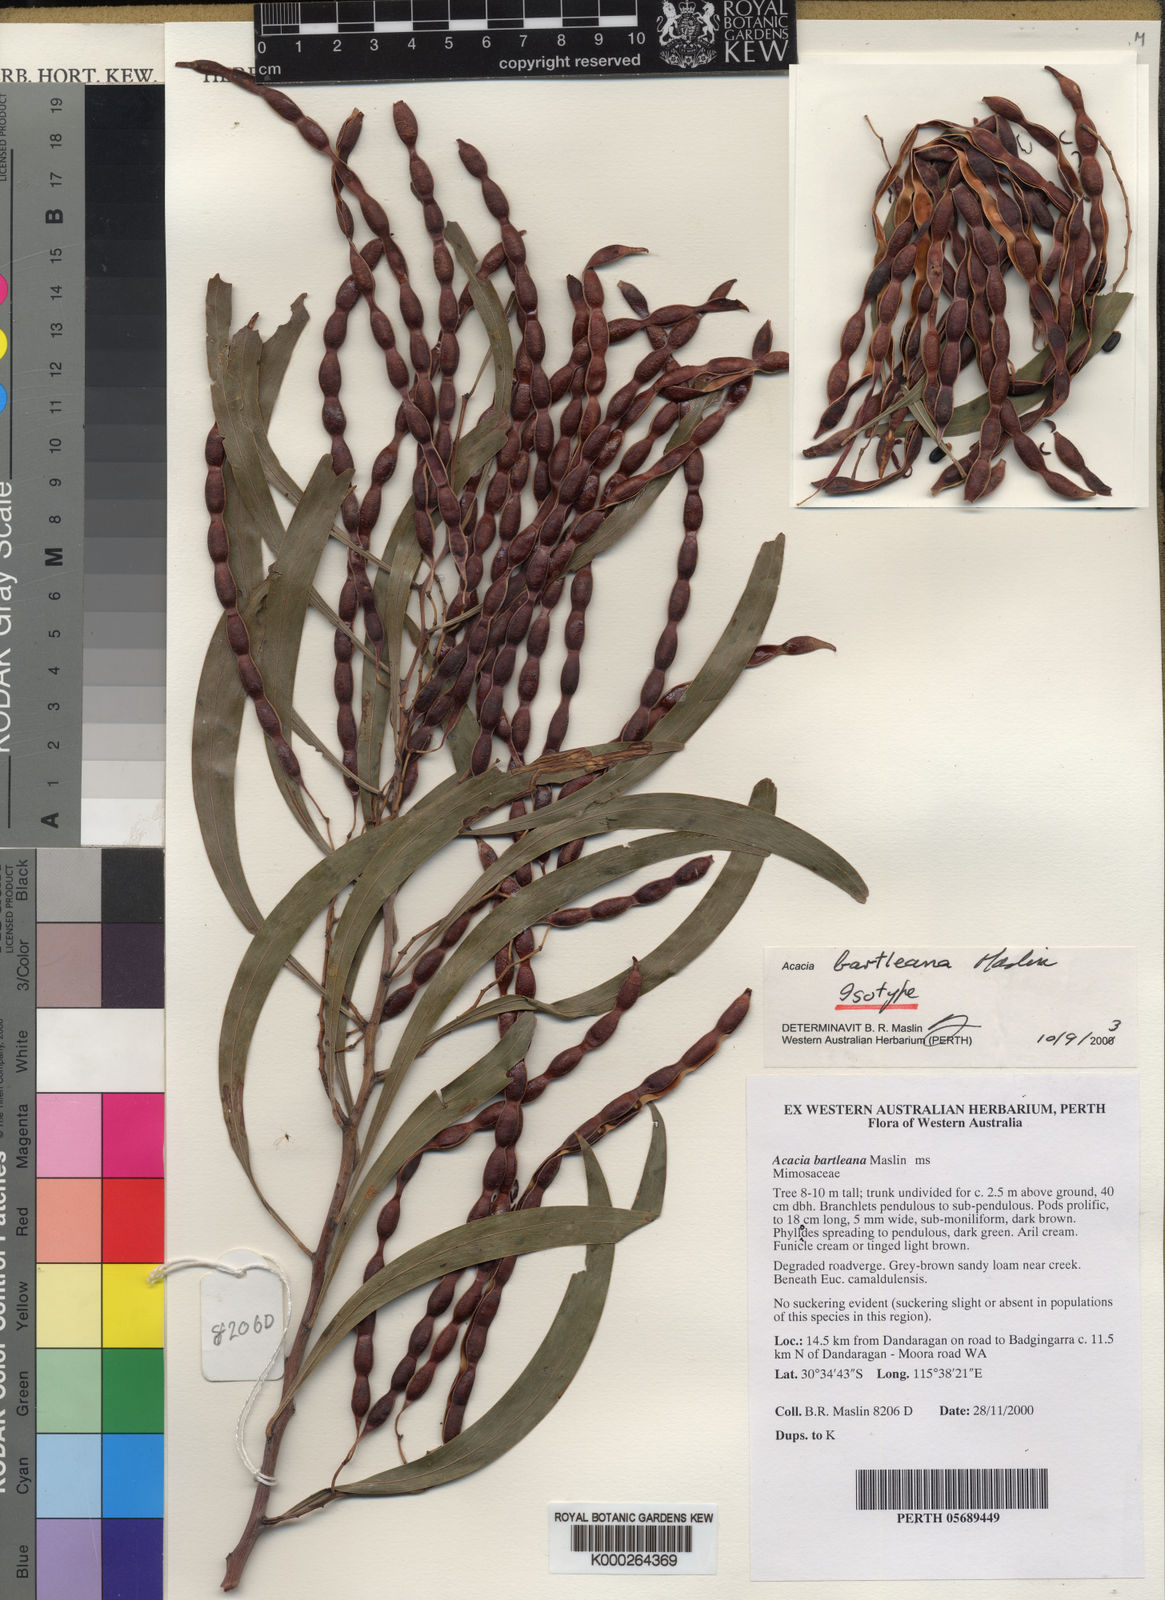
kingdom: Plantae
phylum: Tracheophyta
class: Magnoliopsida
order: Fabales
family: Fabaceae
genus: Acacia
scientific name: Acacia
